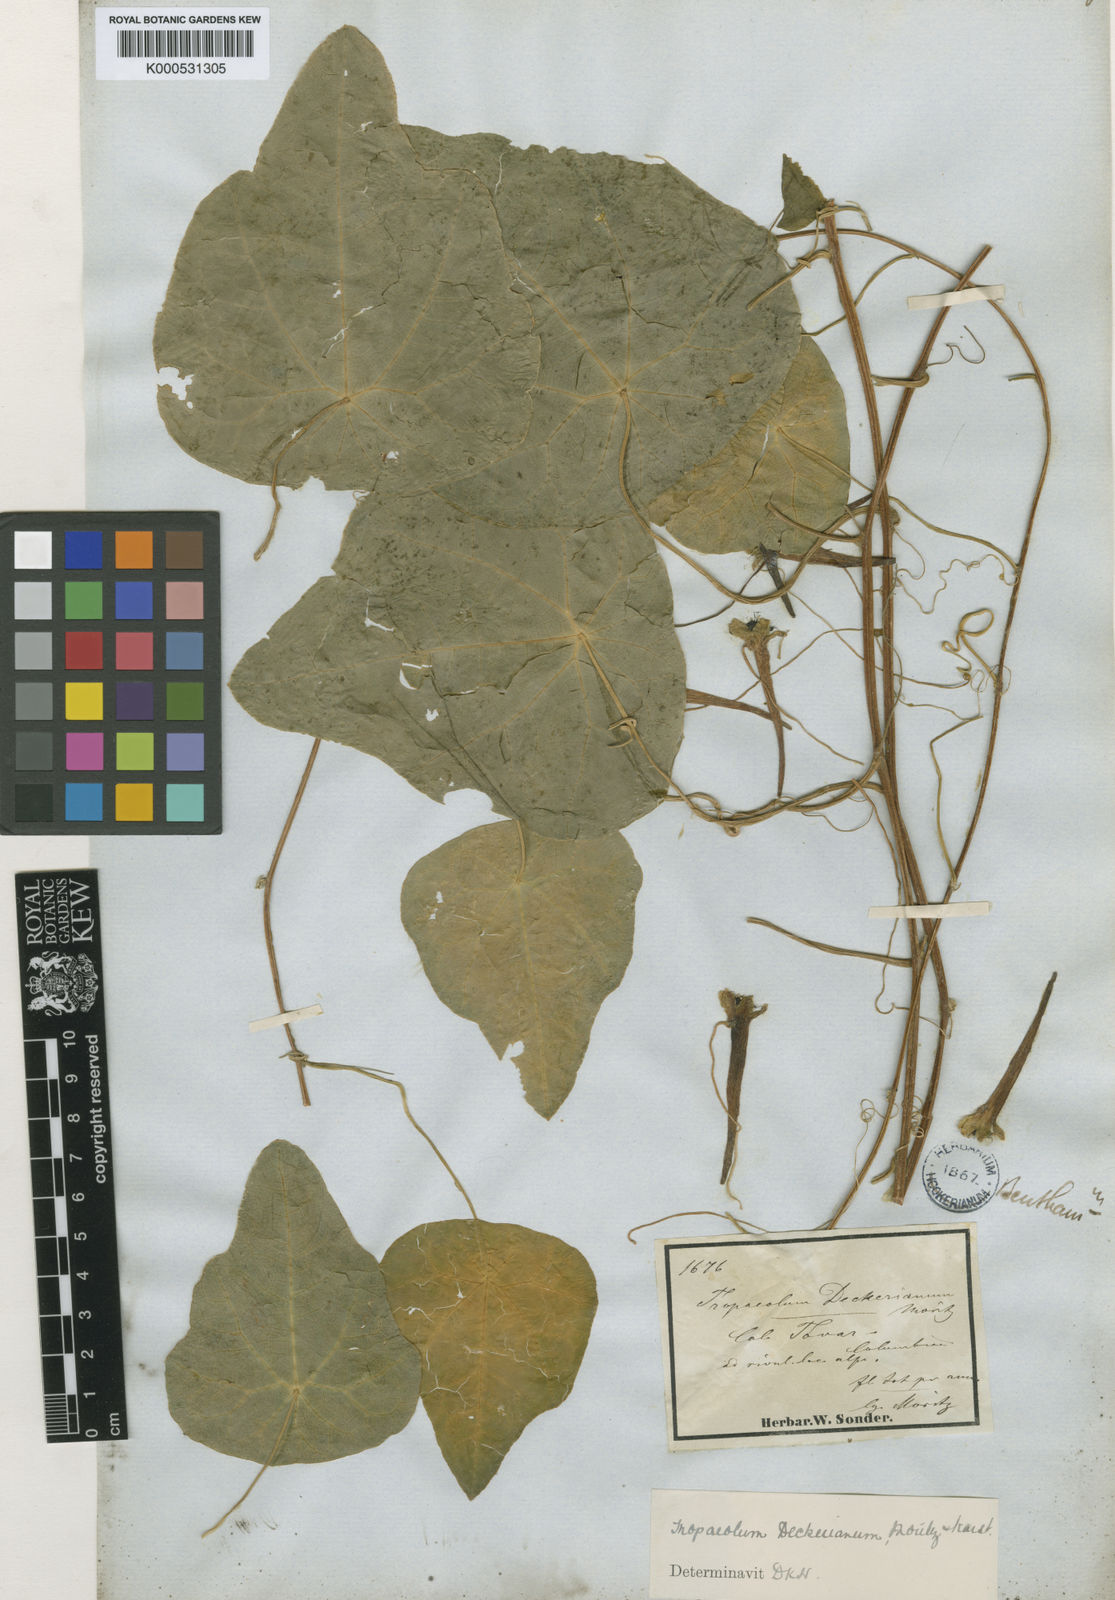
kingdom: Plantae
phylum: Tracheophyta
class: Magnoliopsida
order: Brassicales
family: Tropaeolaceae
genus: Tropaeolum
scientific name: Tropaeolum deckerianum
